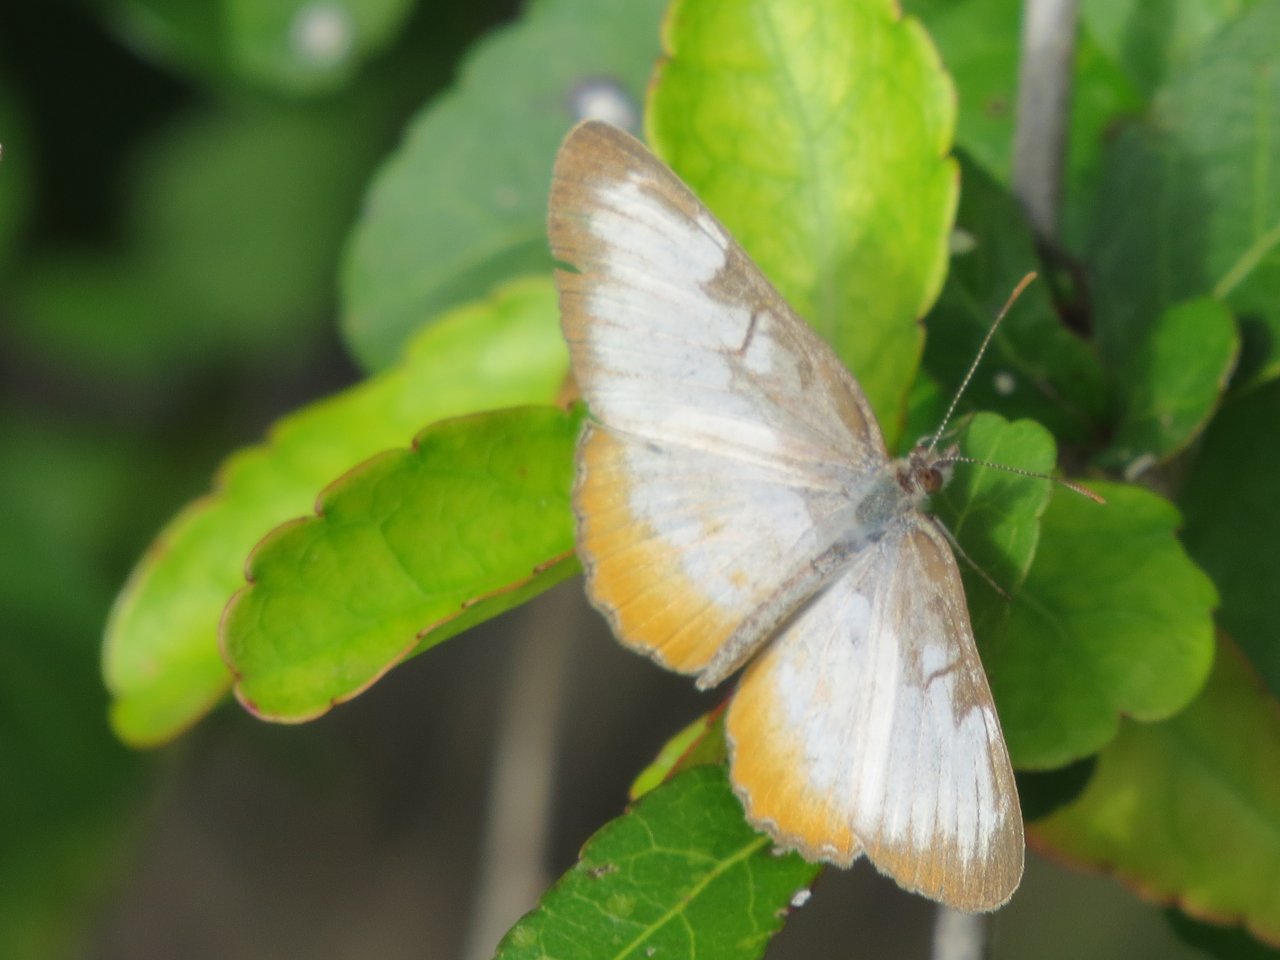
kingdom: Animalia
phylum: Arthropoda
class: Insecta
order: Lepidoptera
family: Nymphalidae
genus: Mestra
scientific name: Mestra amymone
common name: Common Mestra
